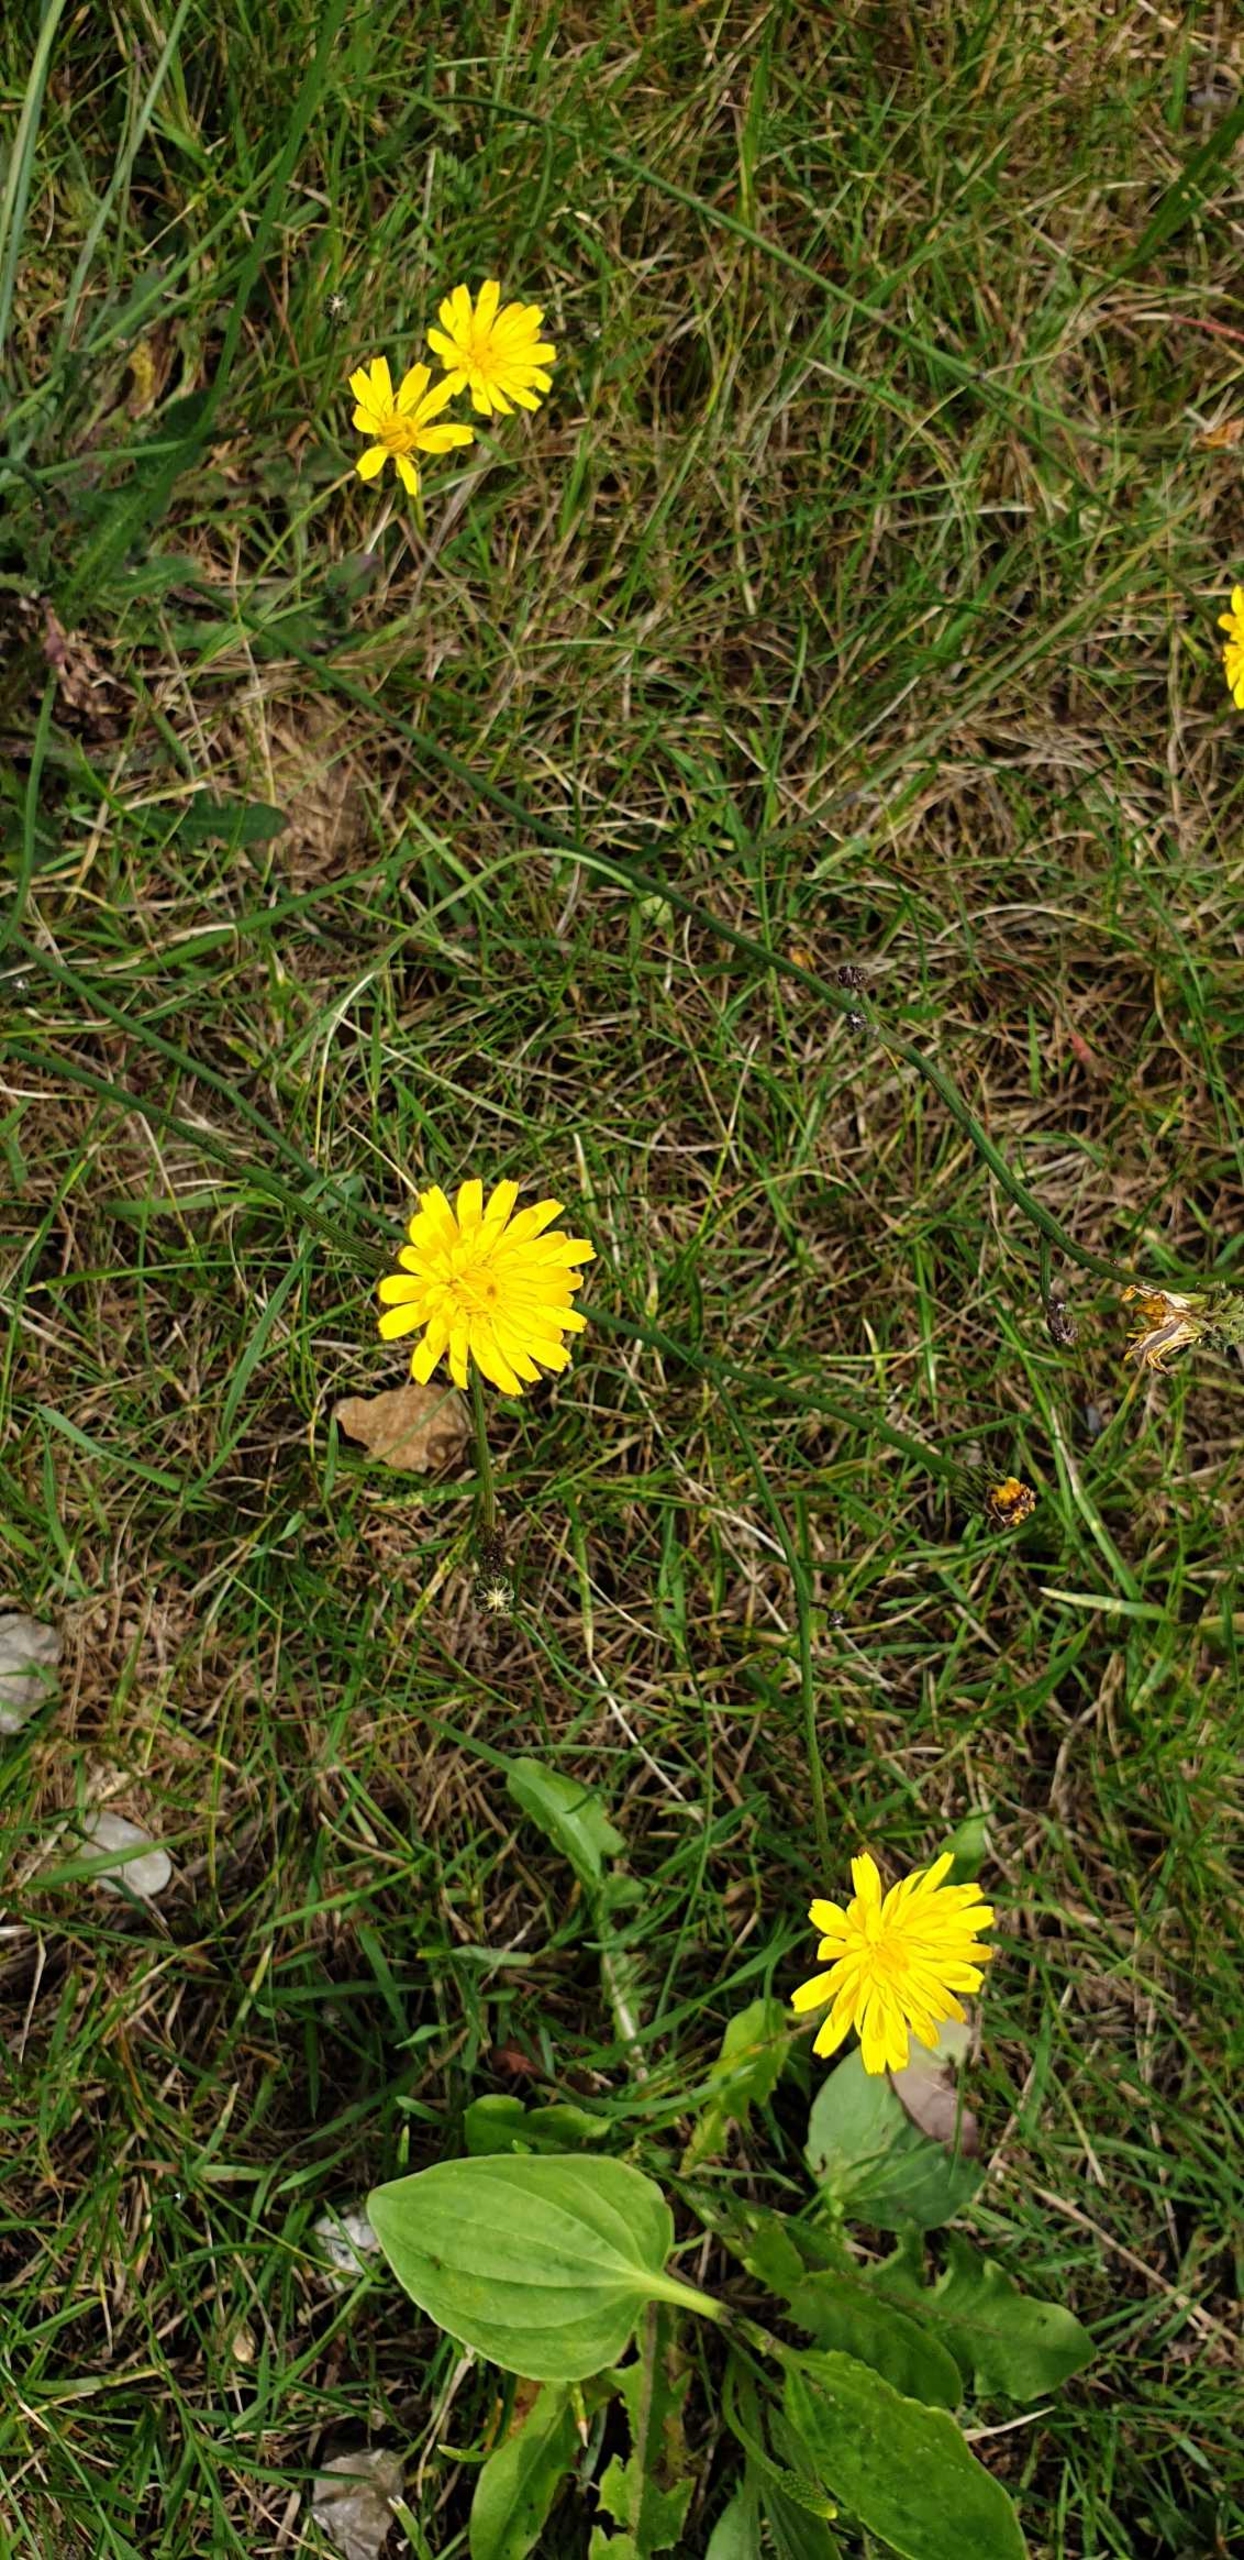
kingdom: Plantae
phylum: Tracheophyta
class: Magnoliopsida
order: Asterales
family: Asteraceae
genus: Hypochaeris
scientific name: Hypochaeris radicata
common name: Almindelig kongepen
